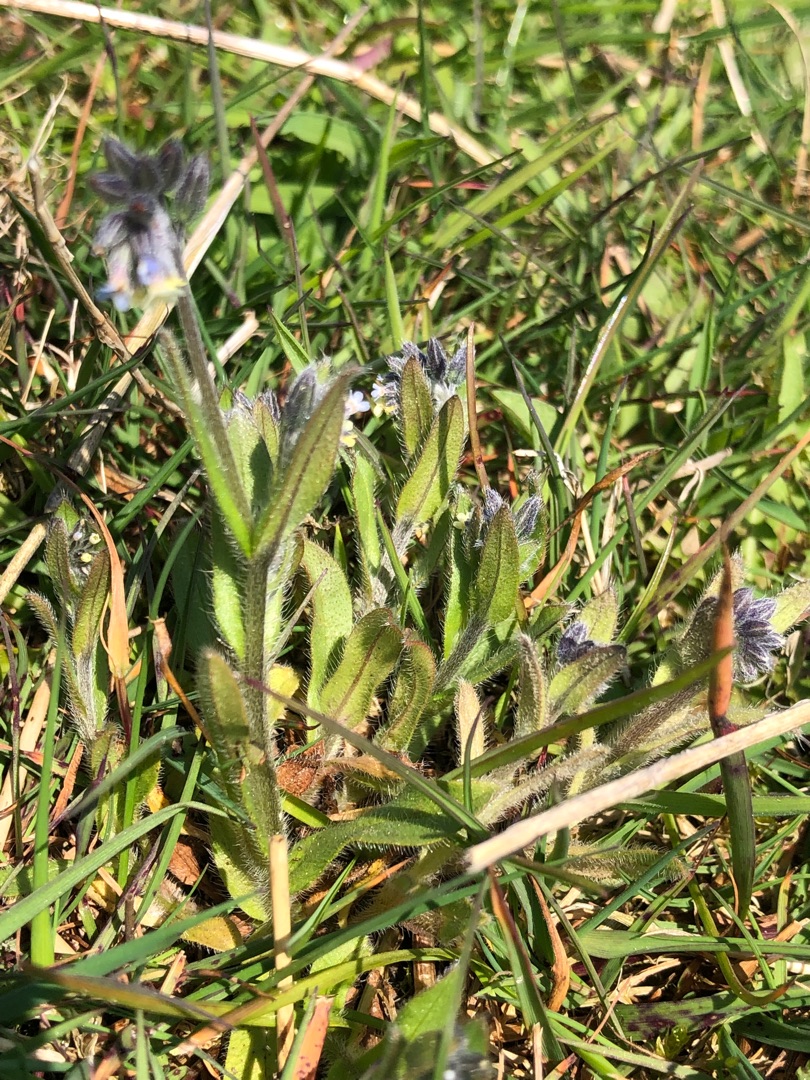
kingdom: Plantae
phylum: Tracheophyta
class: Magnoliopsida
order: Boraginales
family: Boraginaceae
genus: Myosotis
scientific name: Myosotis discolor
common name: Forskelligfarvet forglemmigej
